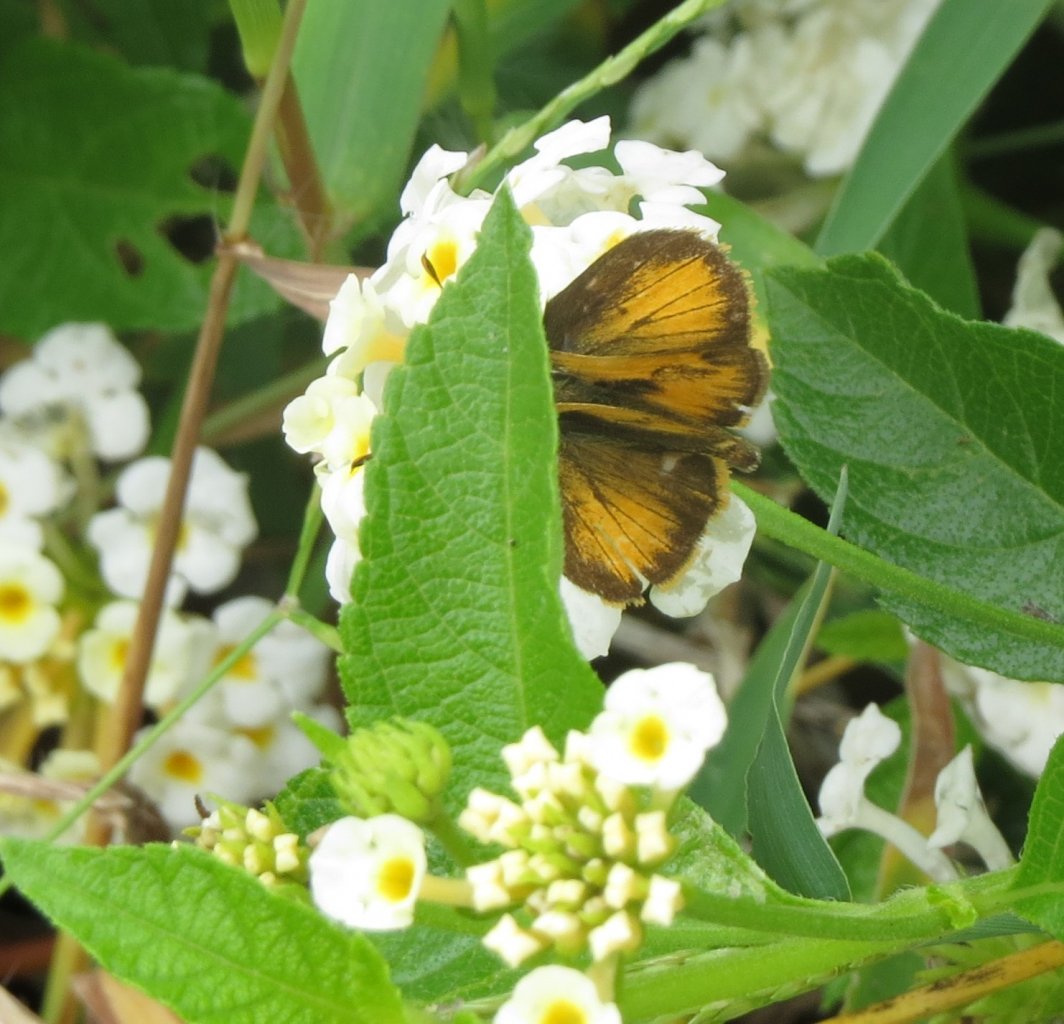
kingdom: Animalia
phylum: Arthropoda
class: Insecta
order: Lepidoptera
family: Hesperiidae
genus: Polites
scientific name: Polites vibex
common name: Whirlabout
